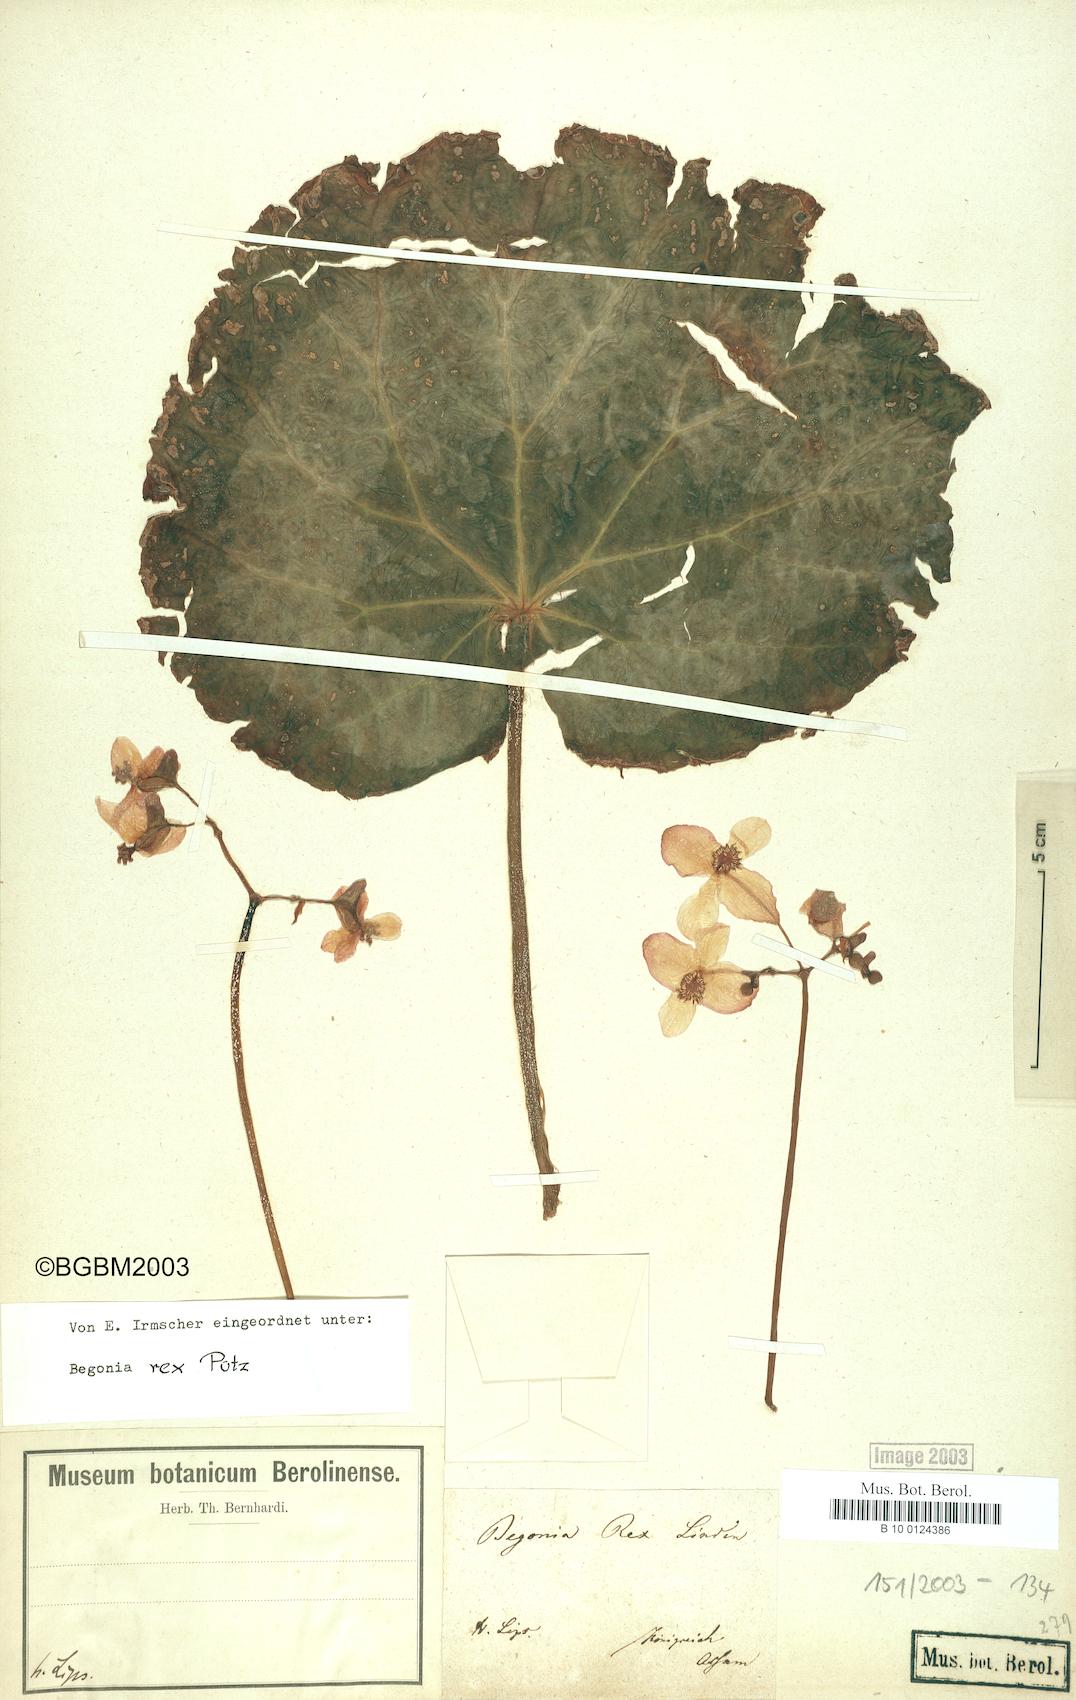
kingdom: Plantae
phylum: Tracheophyta
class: Magnoliopsida
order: Cucurbitales
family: Begoniaceae
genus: Begonia
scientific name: Begonia rex
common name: Painted-leaf begonia
